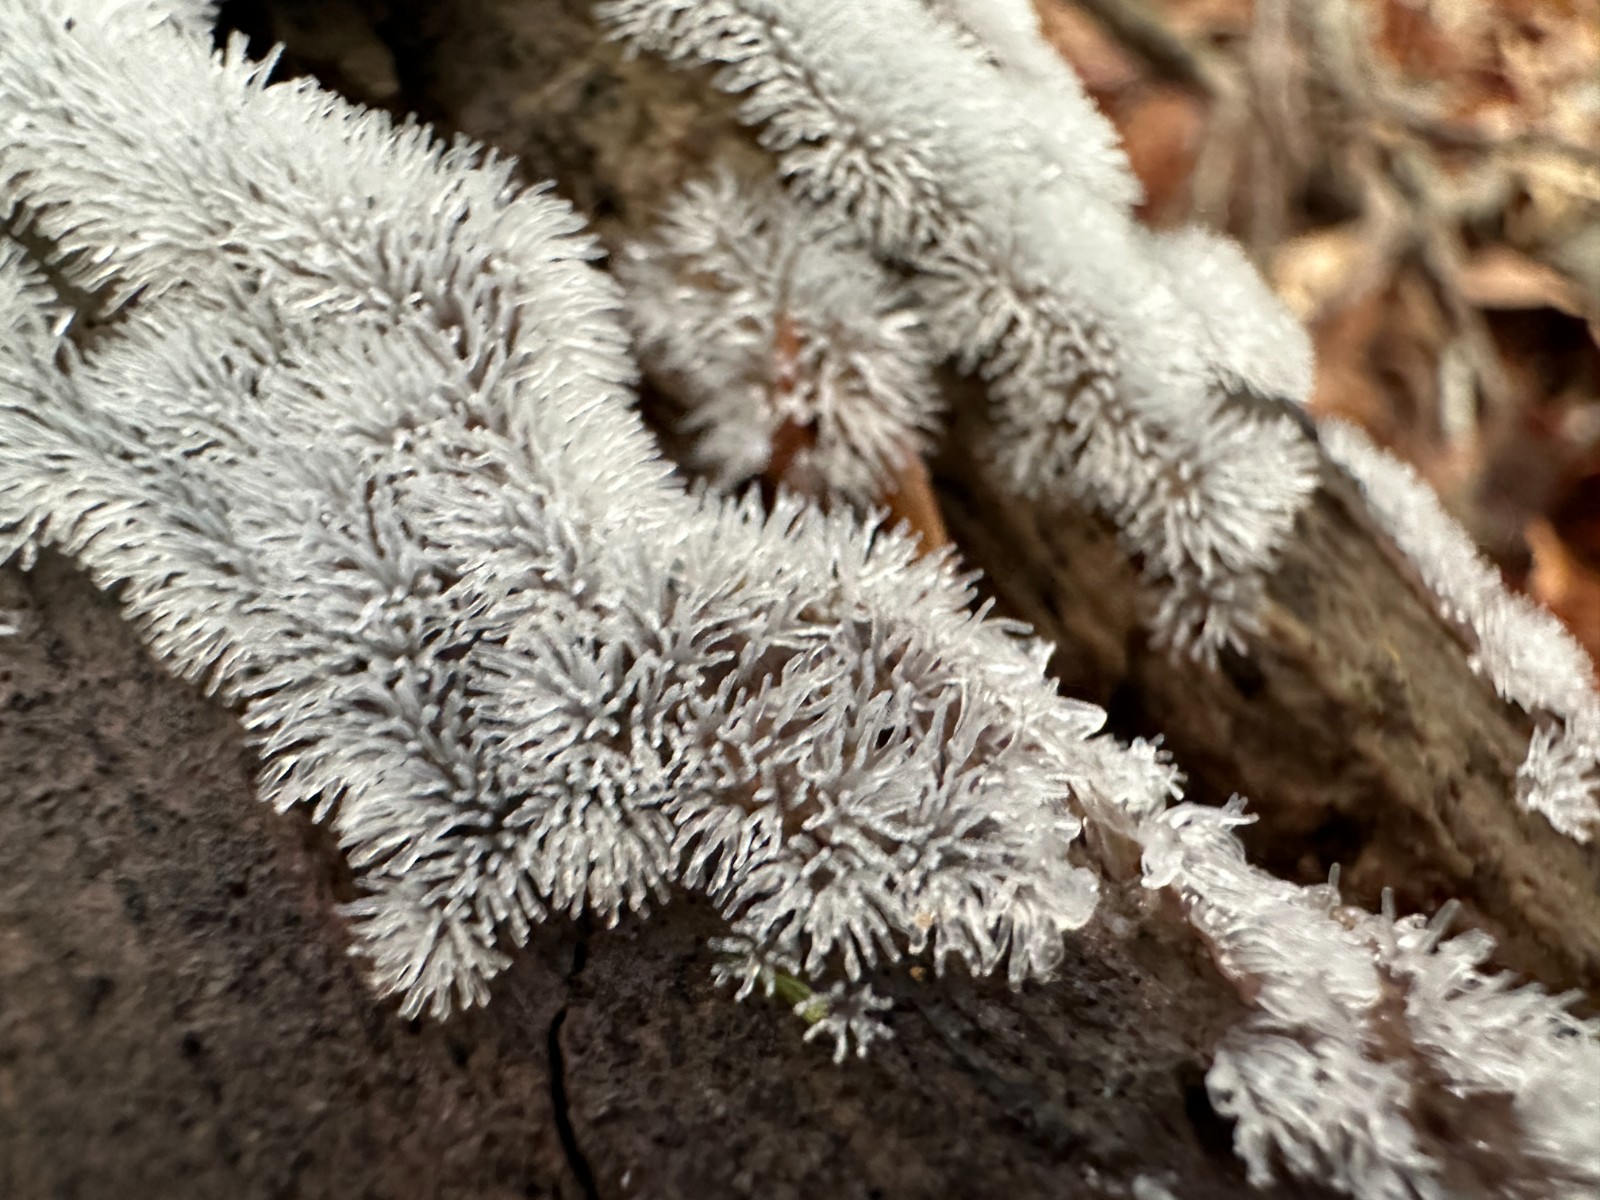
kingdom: Protozoa
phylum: Mycetozoa
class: Protosteliomycetes
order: Ceratiomyxales
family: Ceratiomyxaceae
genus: Ceratiomyxa
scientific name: Ceratiomyxa fruticulosa
